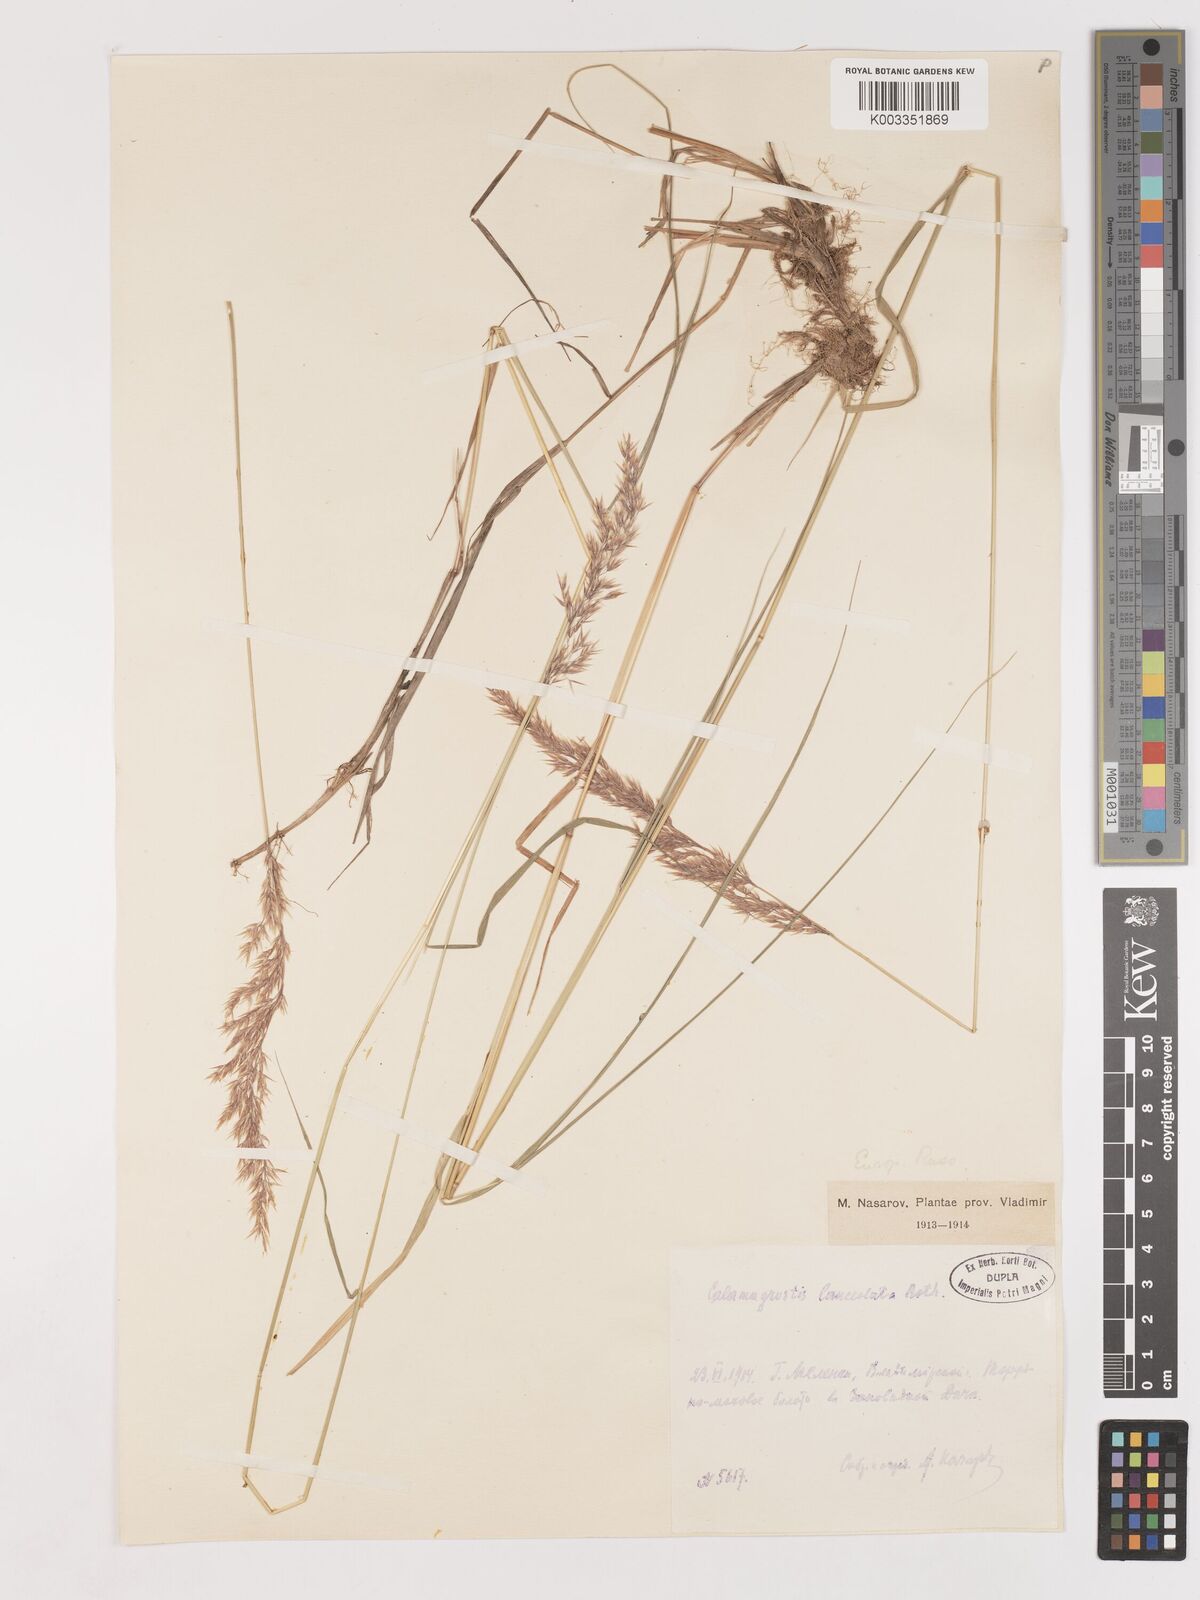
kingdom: Plantae
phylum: Tracheophyta
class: Liliopsida
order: Poales
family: Poaceae
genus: Calamagrostis
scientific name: Calamagrostis canescens
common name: Purple small-reed
